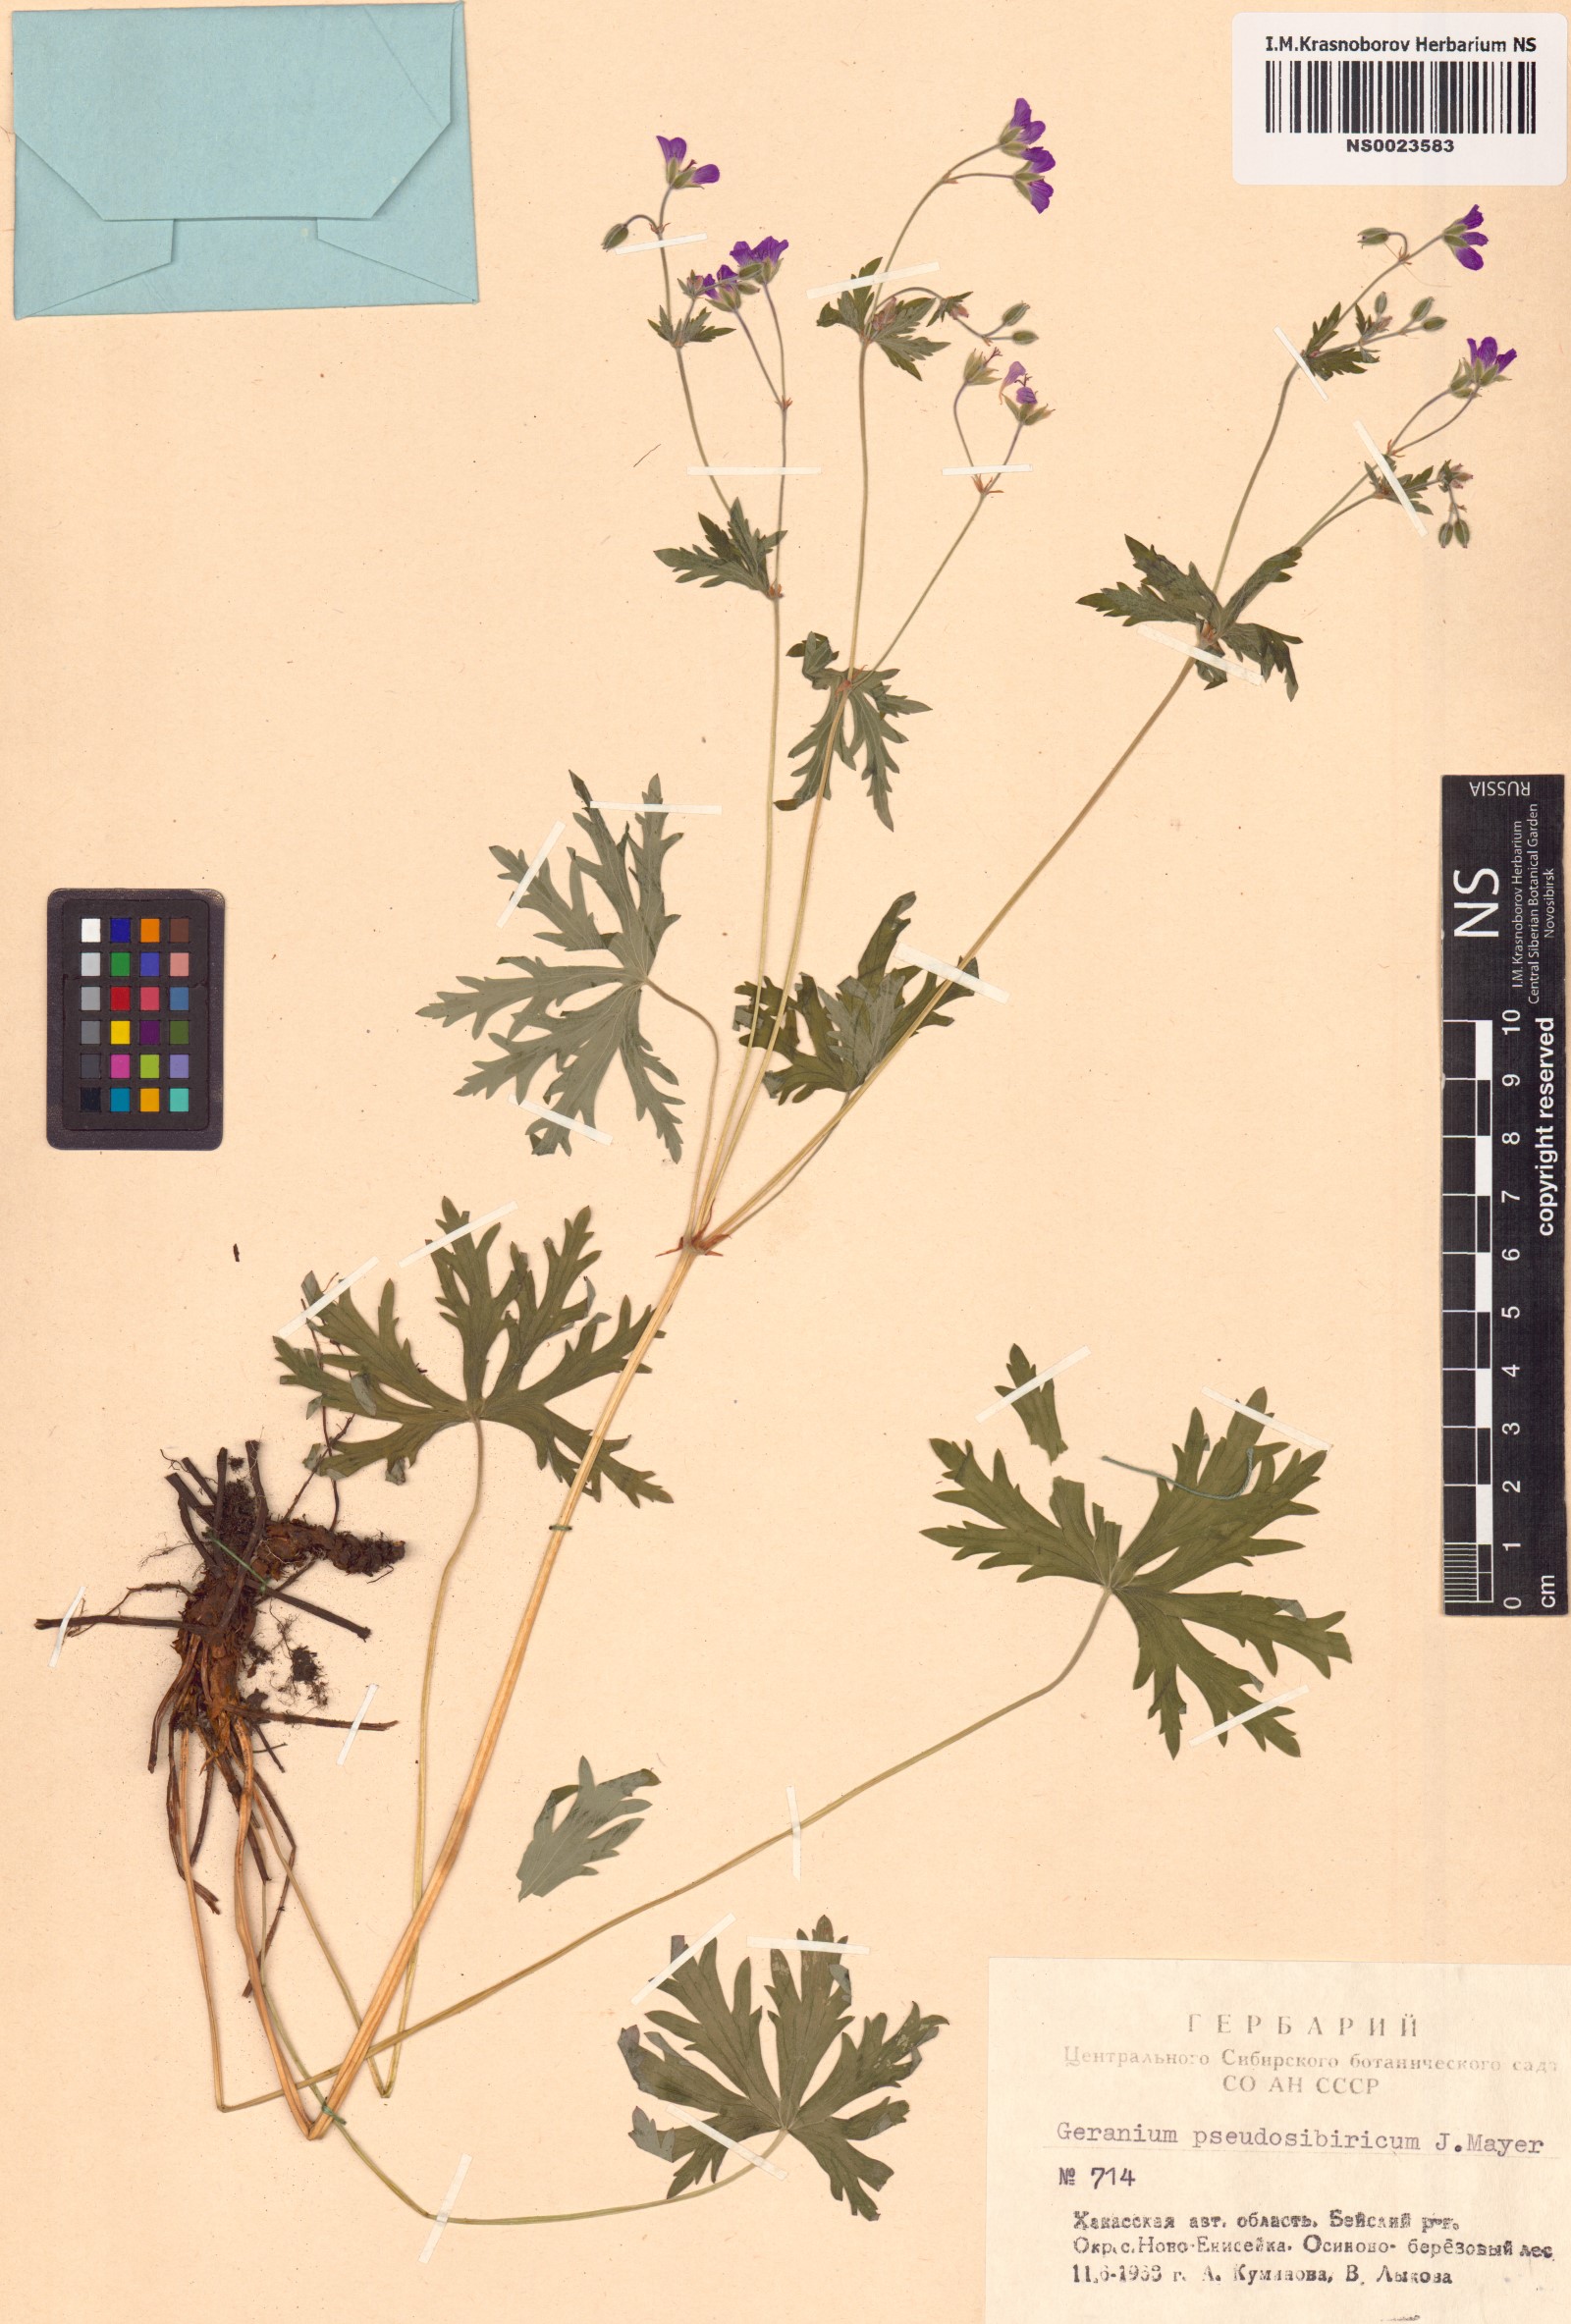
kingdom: Plantae
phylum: Tracheophyta
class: Magnoliopsida
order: Geraniales
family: Geraniaceae
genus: Geranium
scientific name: Geranium pseudosibiricum
